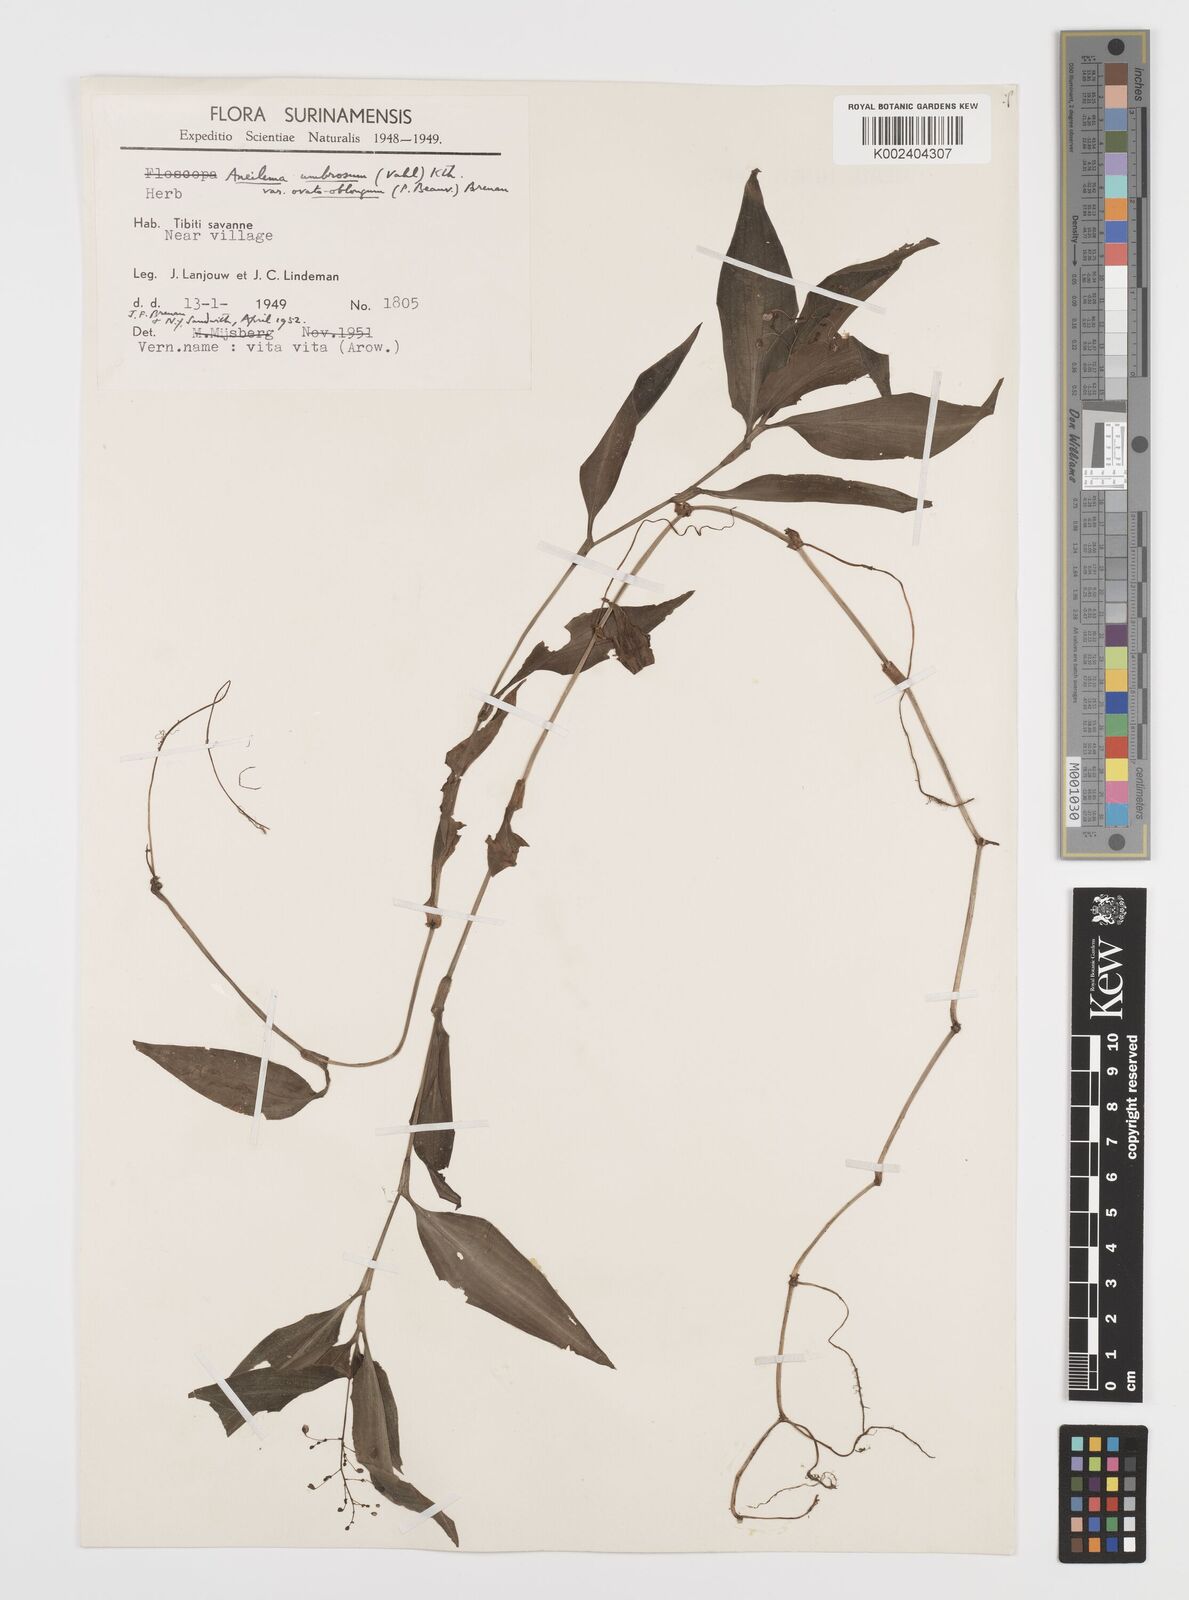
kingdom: Plantae
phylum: Tracheophyta
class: Liliopsida
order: Commelinales
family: Commelinaceae
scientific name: Commelinaceae
